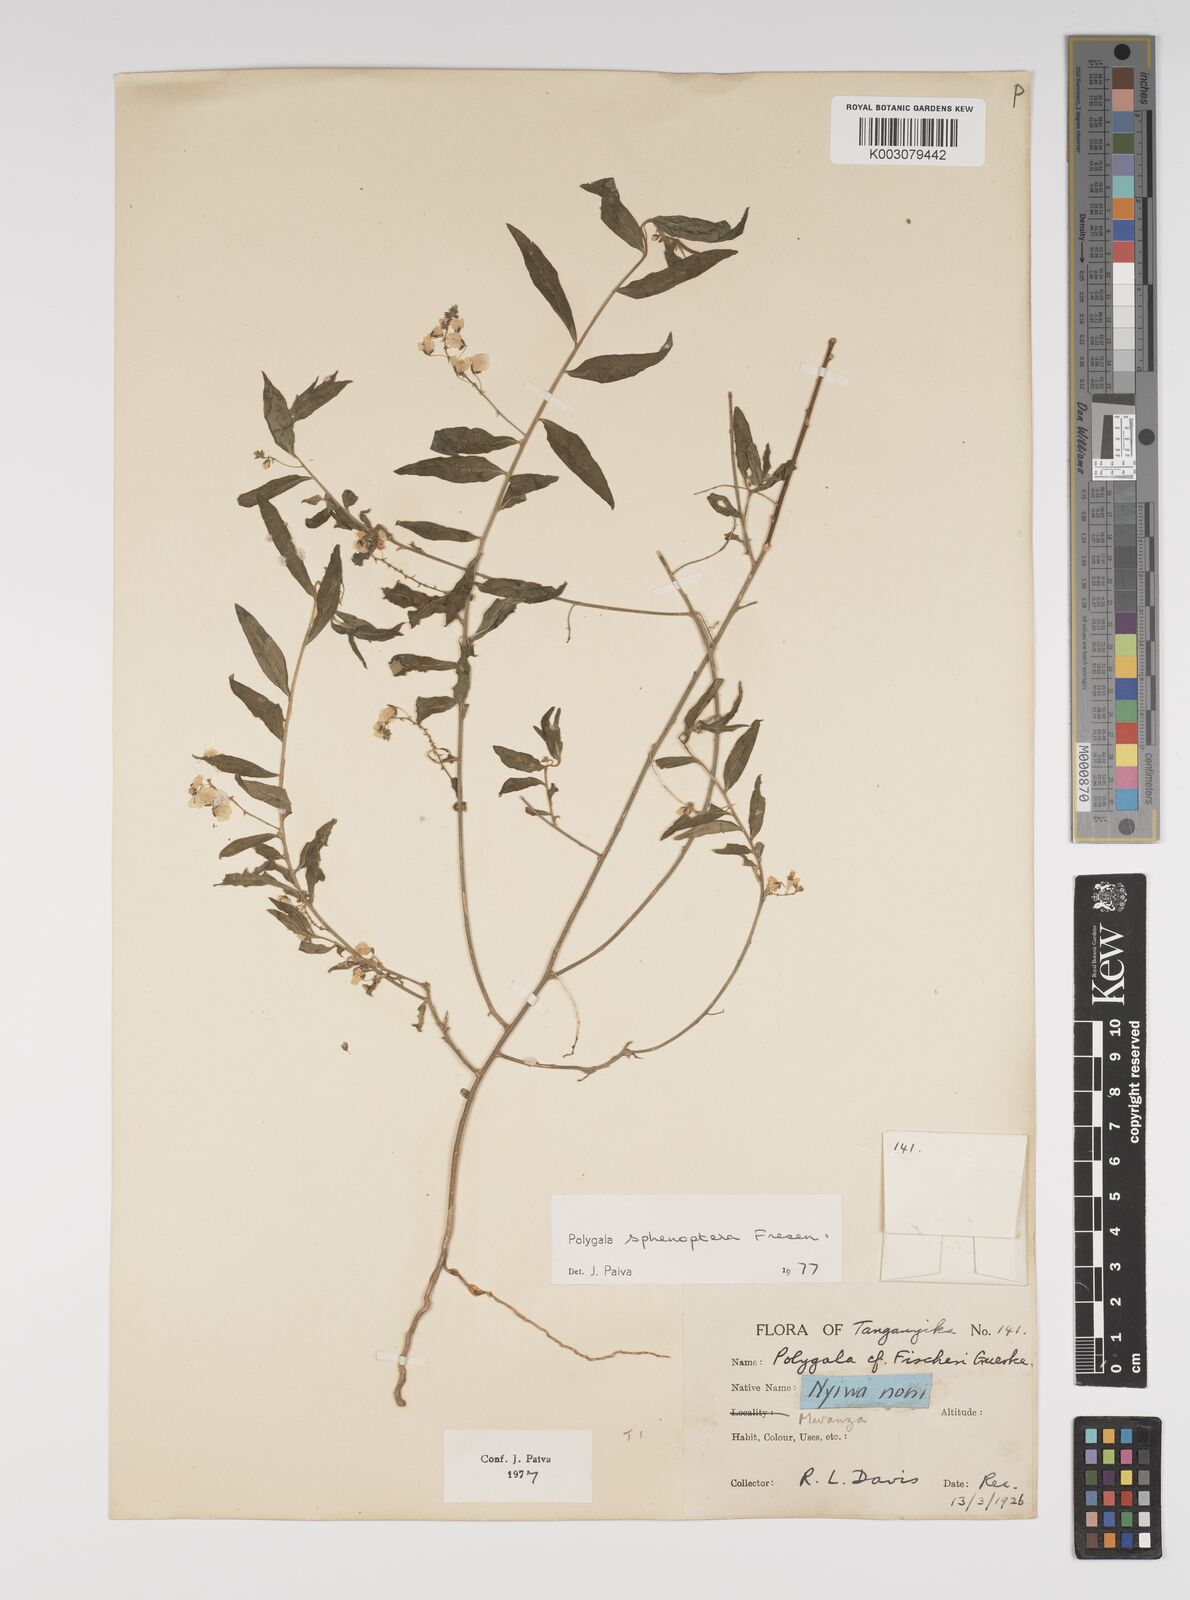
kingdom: Plantae
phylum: Tracheophyta
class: Magnoliopsida
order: Fabales
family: Polygalaceae
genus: Polygala
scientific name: Polygala sphenoptera
